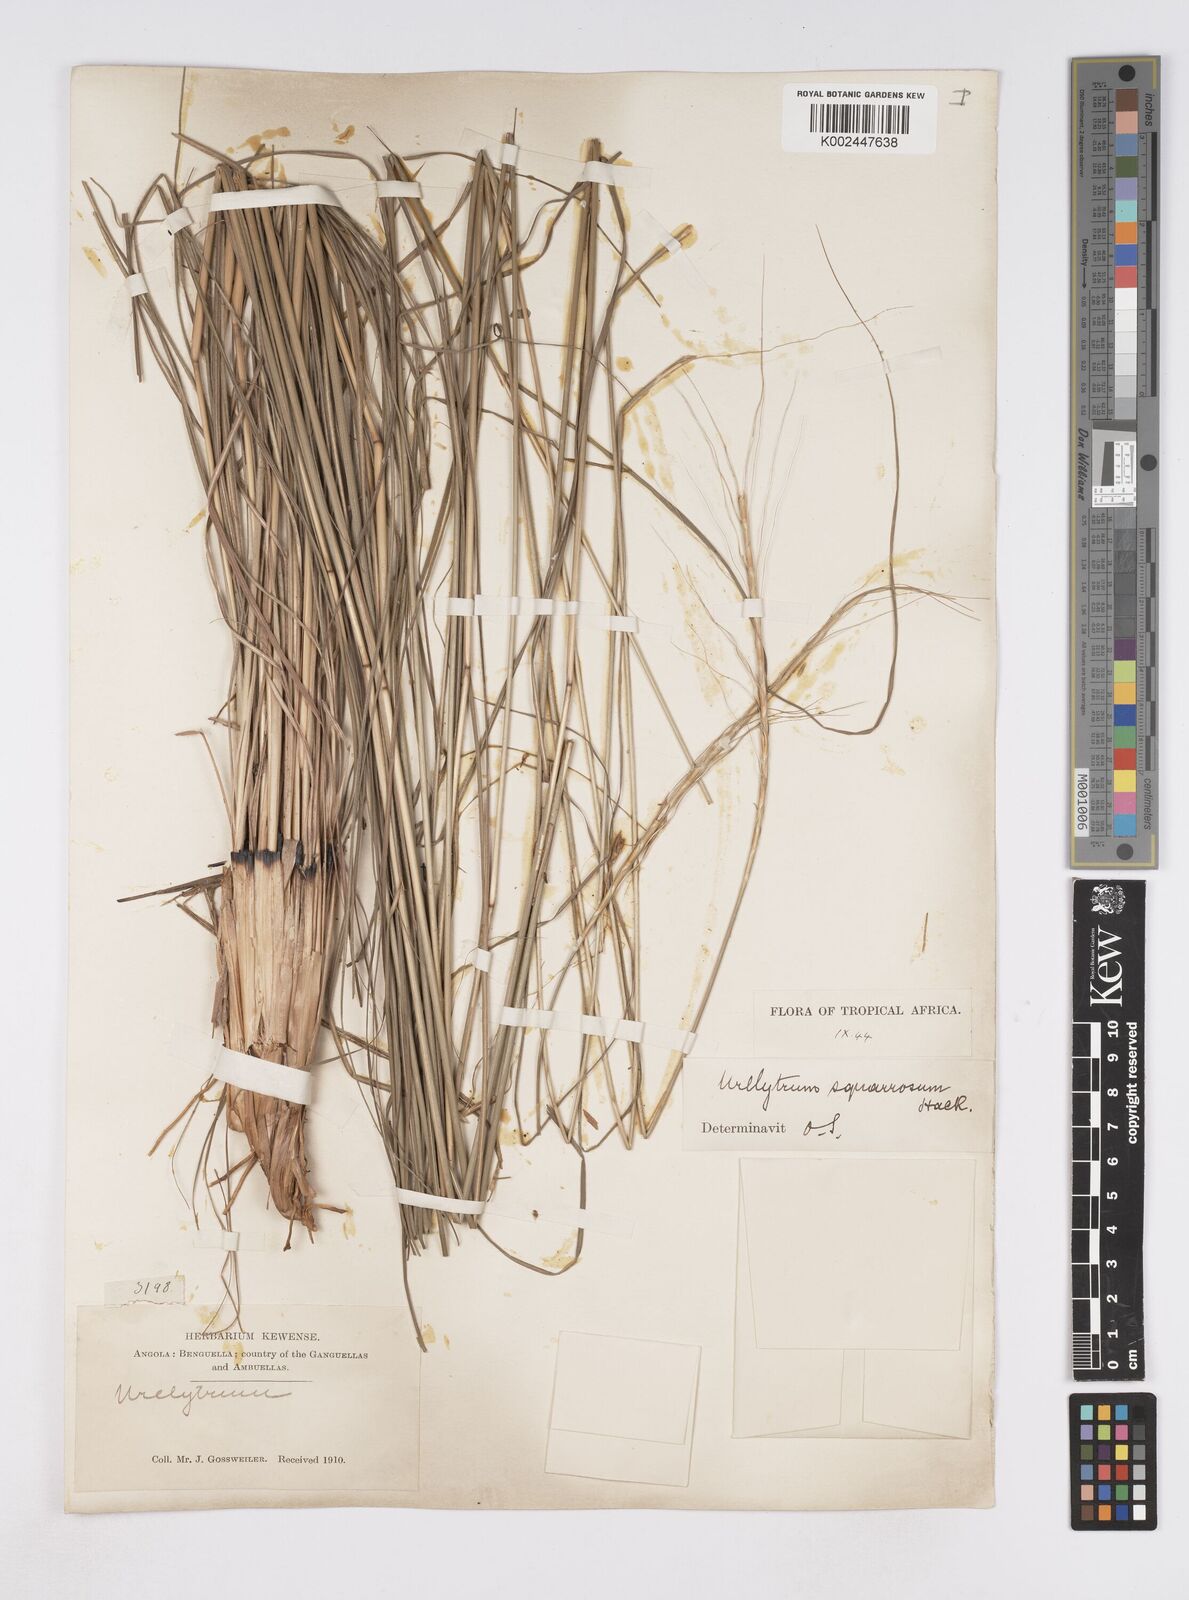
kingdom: Plantae
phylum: Tracheophyta
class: Liliopsida
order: Poales
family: Poaceae
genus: Urelytrum
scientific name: Urelytrum agropyroides
